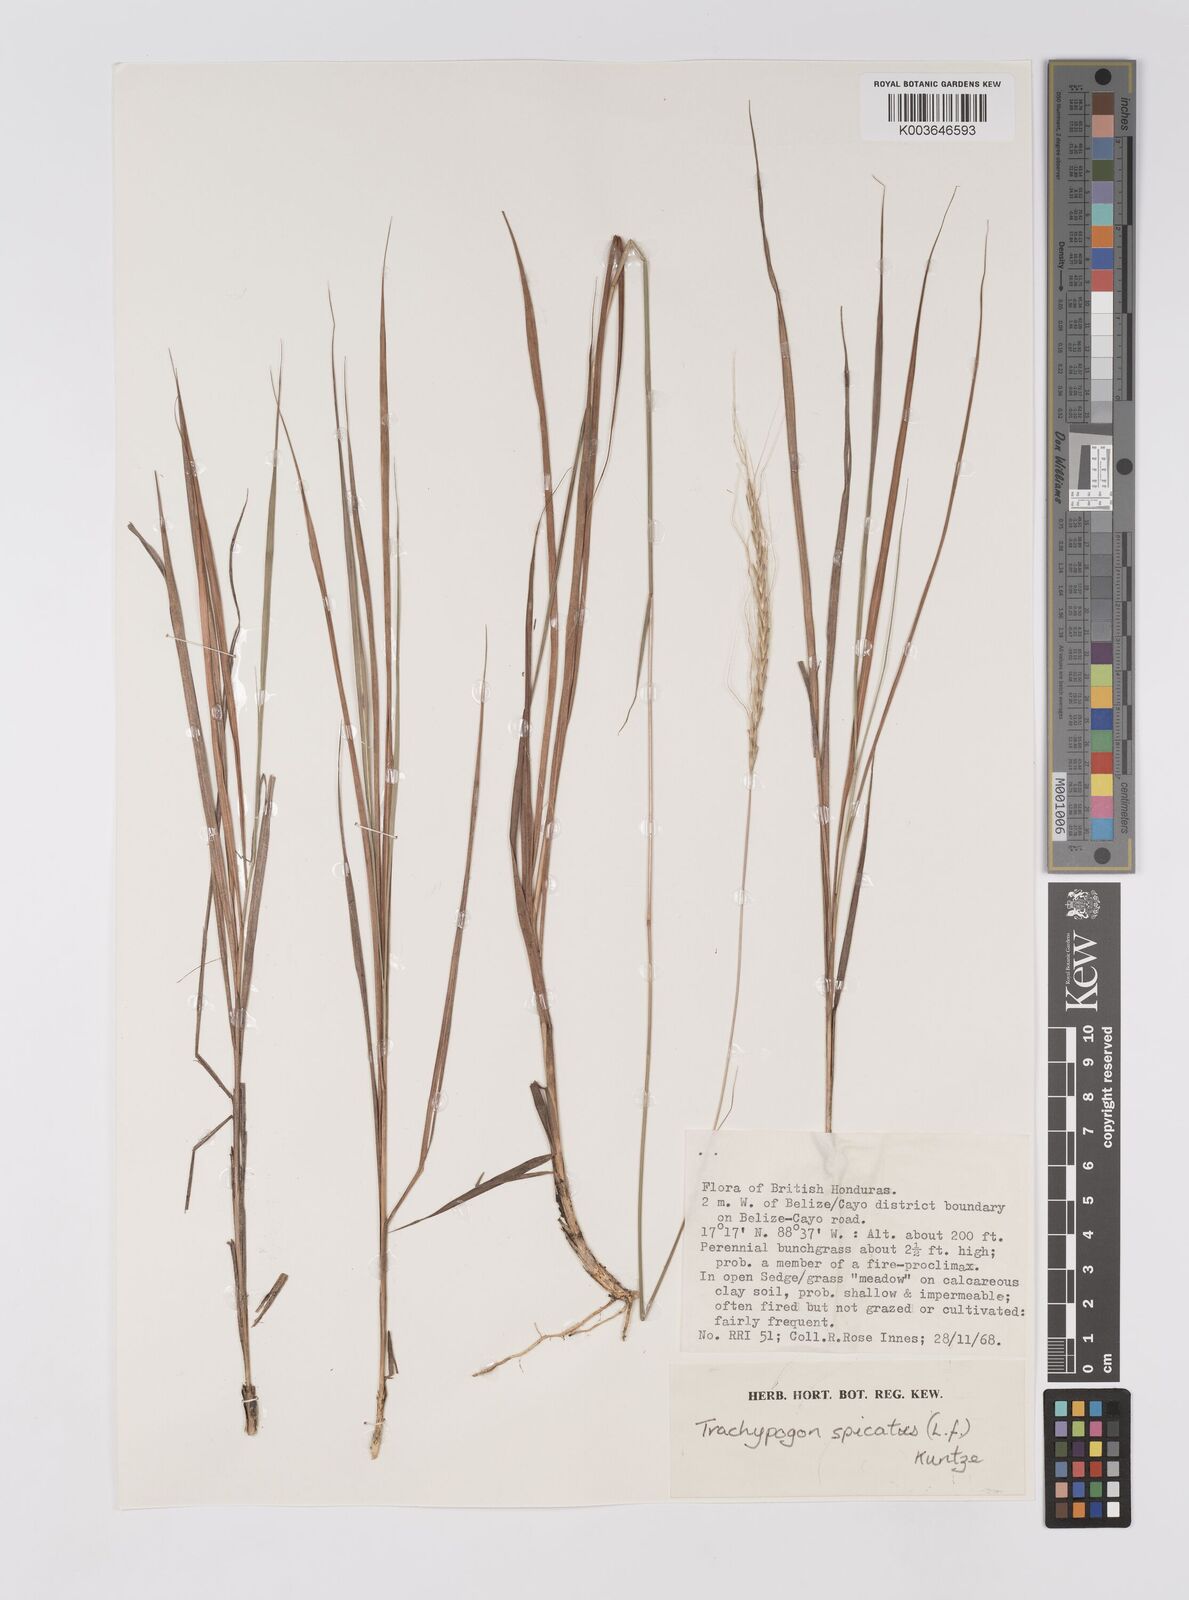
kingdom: Plantae
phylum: Tracheophyta
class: Liliopsida
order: Poales
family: Poaceae
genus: Trachypogon
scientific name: Trachypogon spicatus
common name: Crinkle-awn
